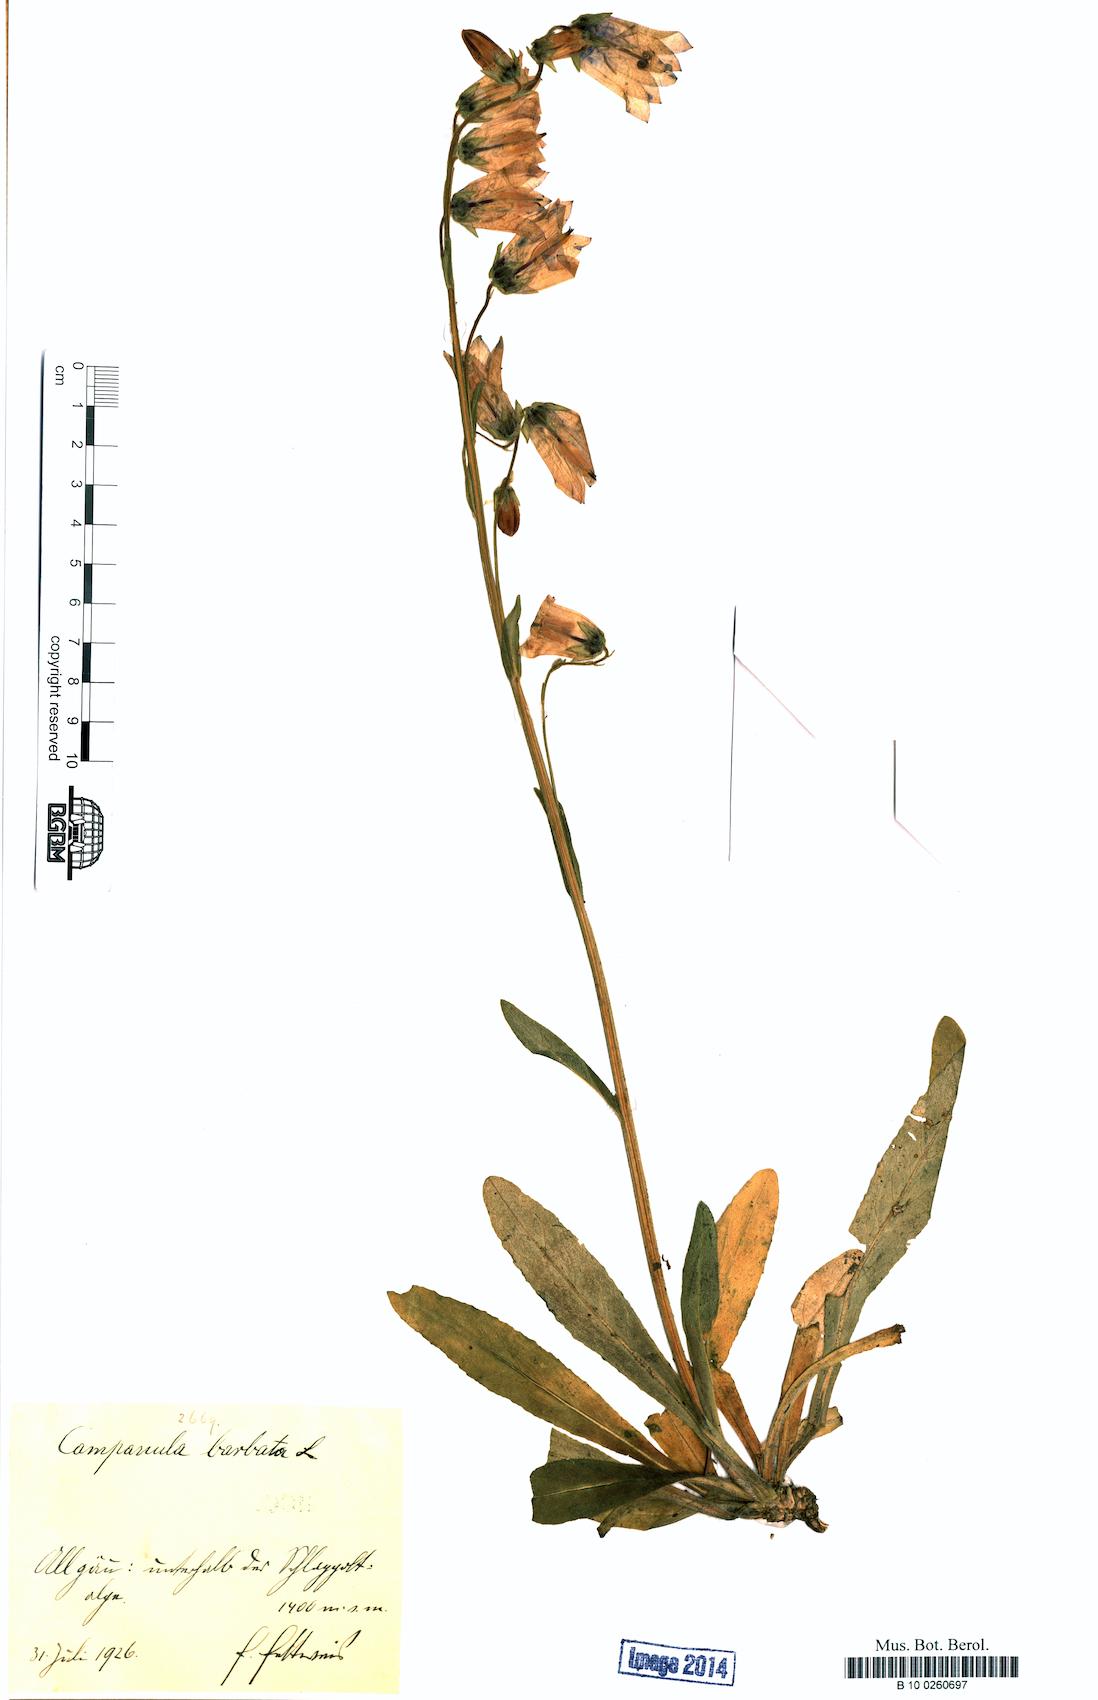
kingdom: Plantae
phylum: Tracheophyta
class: Magnoliopsida
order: Asterales
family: Campanulaceae
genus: Campanula
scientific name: Campanula barbata
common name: Bearded bellflower
